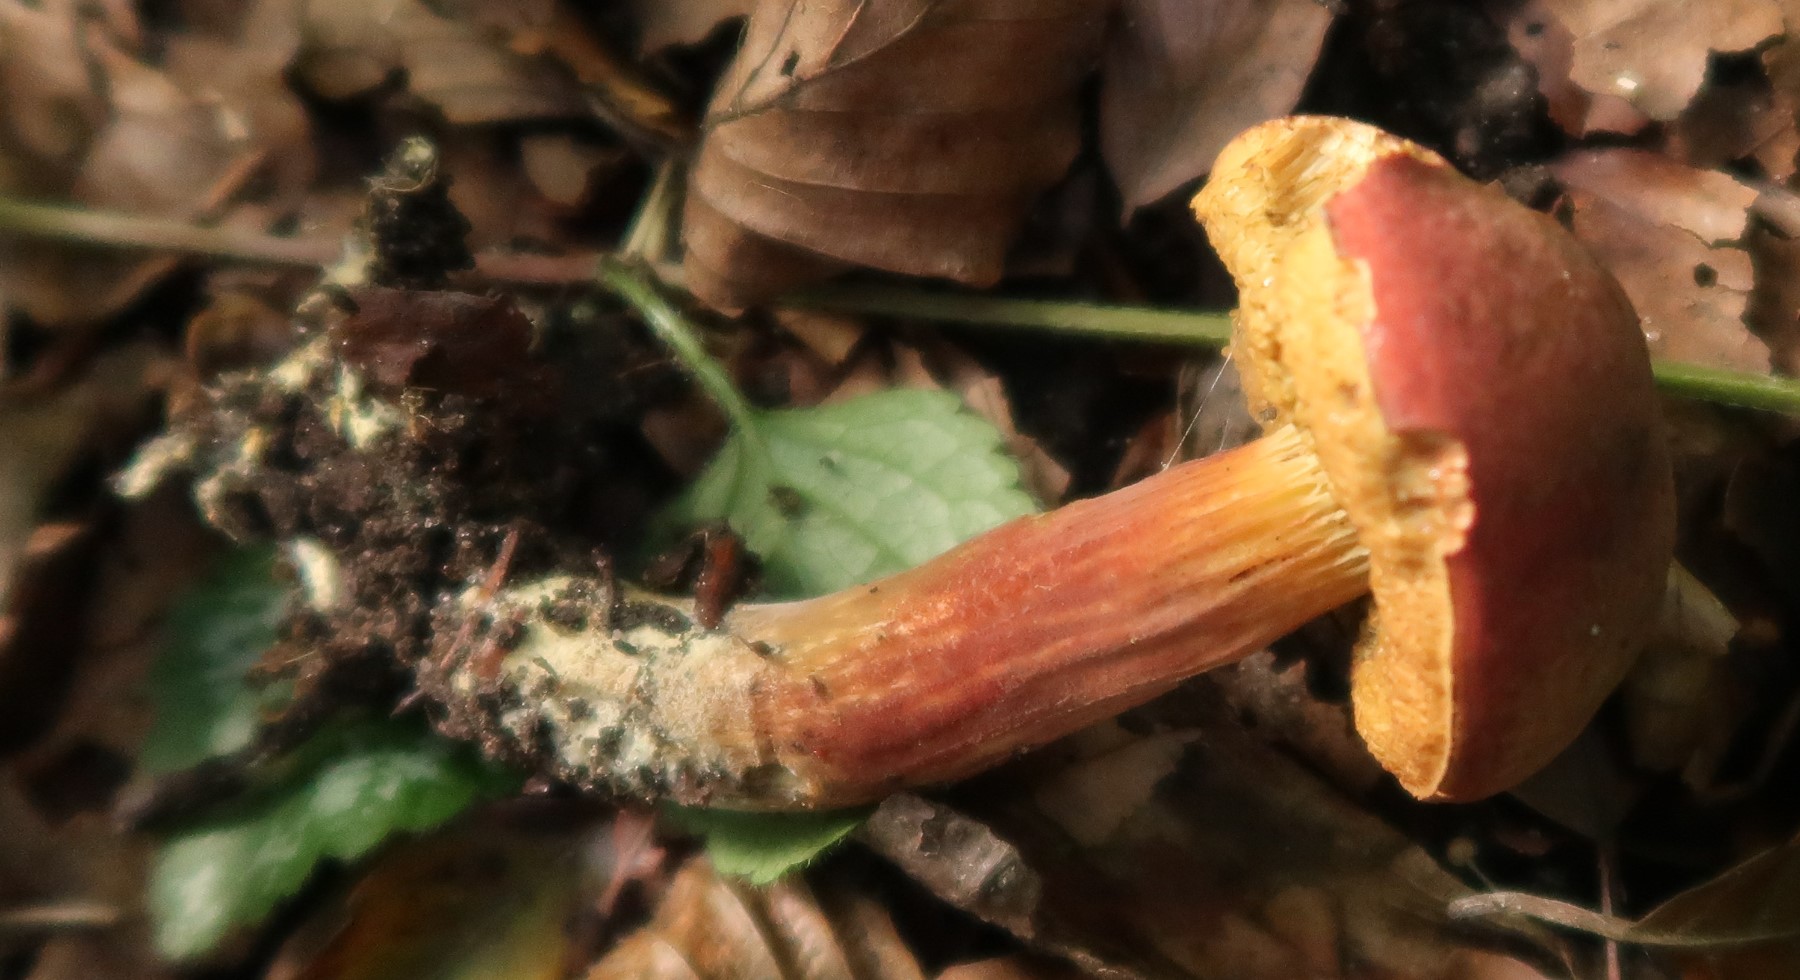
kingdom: Fungi
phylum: Basidiomycota
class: Agaricomycetes
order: Boletales
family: Boletaceae
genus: Hortiboletus
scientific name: Hortiboletus rubellus
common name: blodrød rørhat
